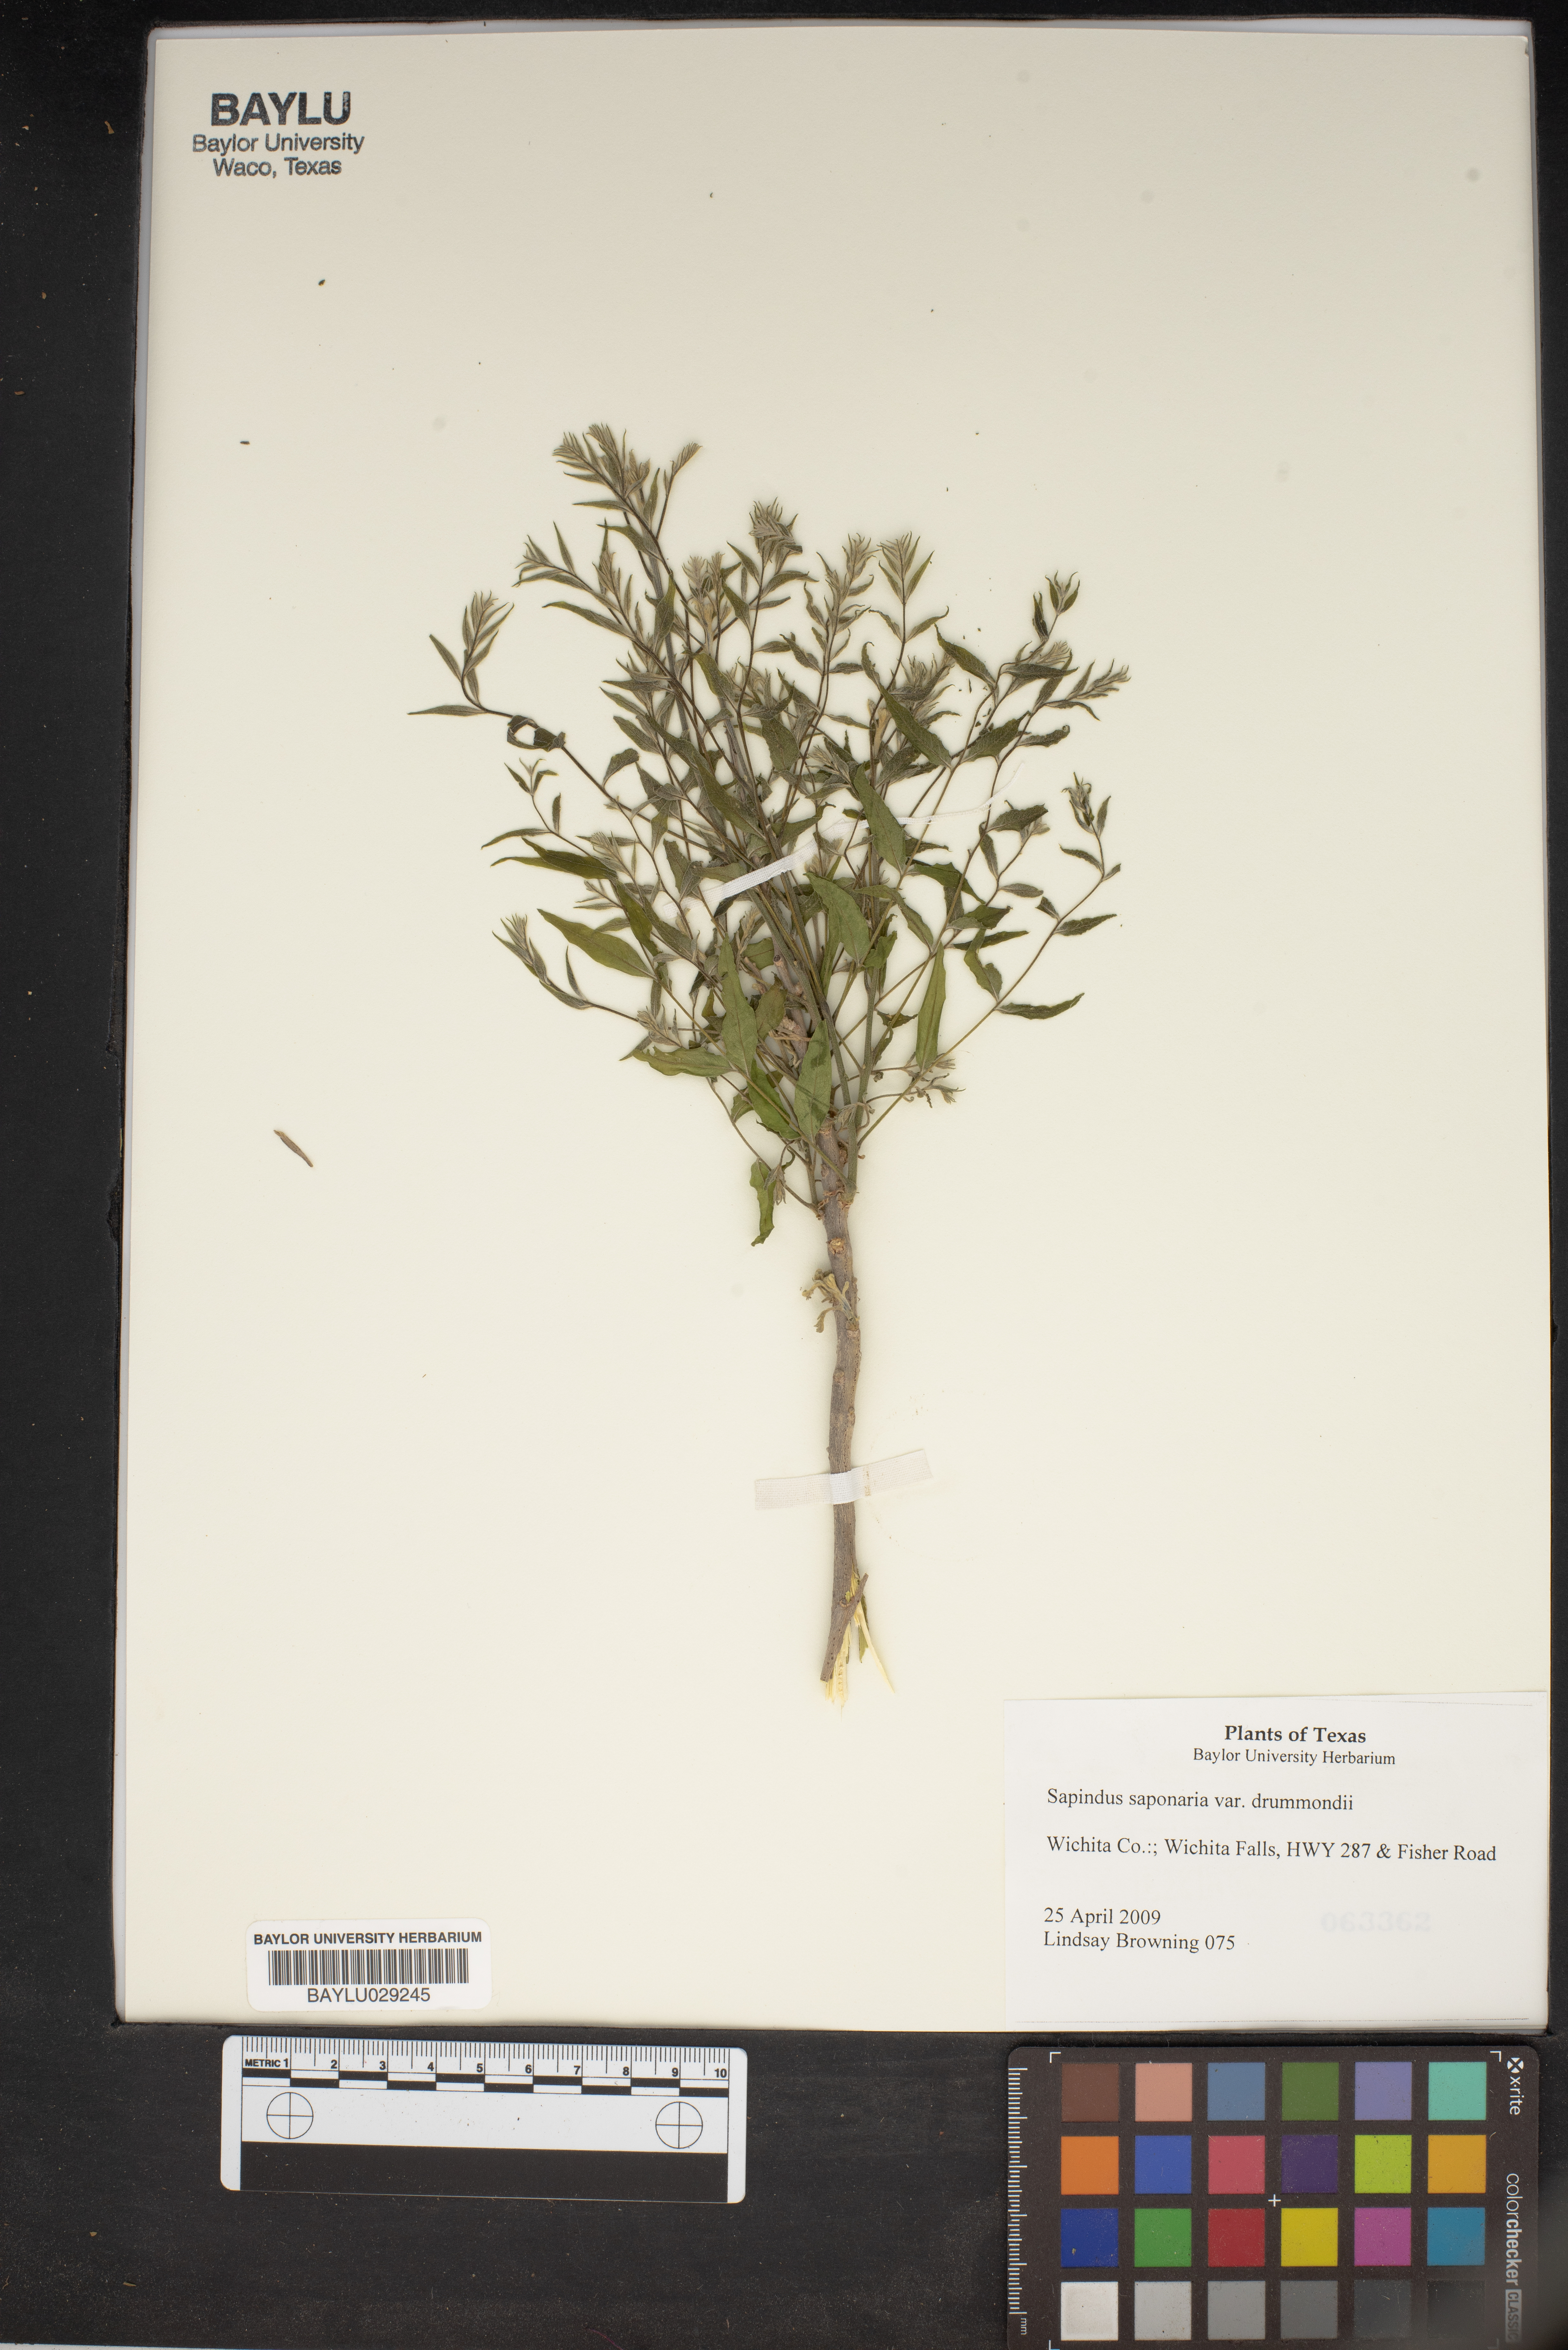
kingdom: Plantae
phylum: Tracheophyta
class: Magnoliopsida
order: Sapindales
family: Sapindaceae
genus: Sapindus
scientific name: Sapindus saponaria
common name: Wingleaf soapberry
